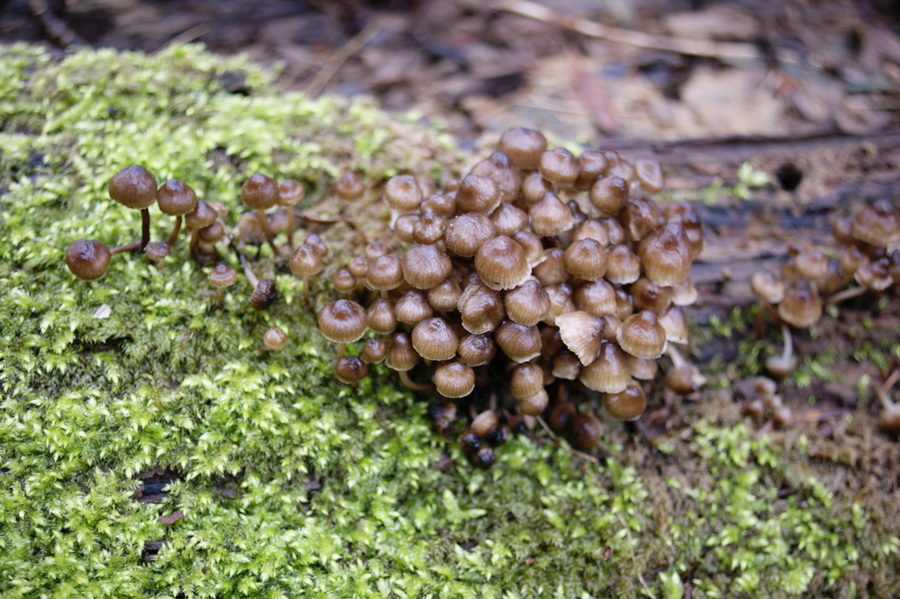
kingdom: Fungi
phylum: Basidiomycota
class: Agaricomycetes
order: Agaricales
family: Mycenaceae
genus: Mycena
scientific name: Mycena tintinnabulum
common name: vinter-huesvamp
